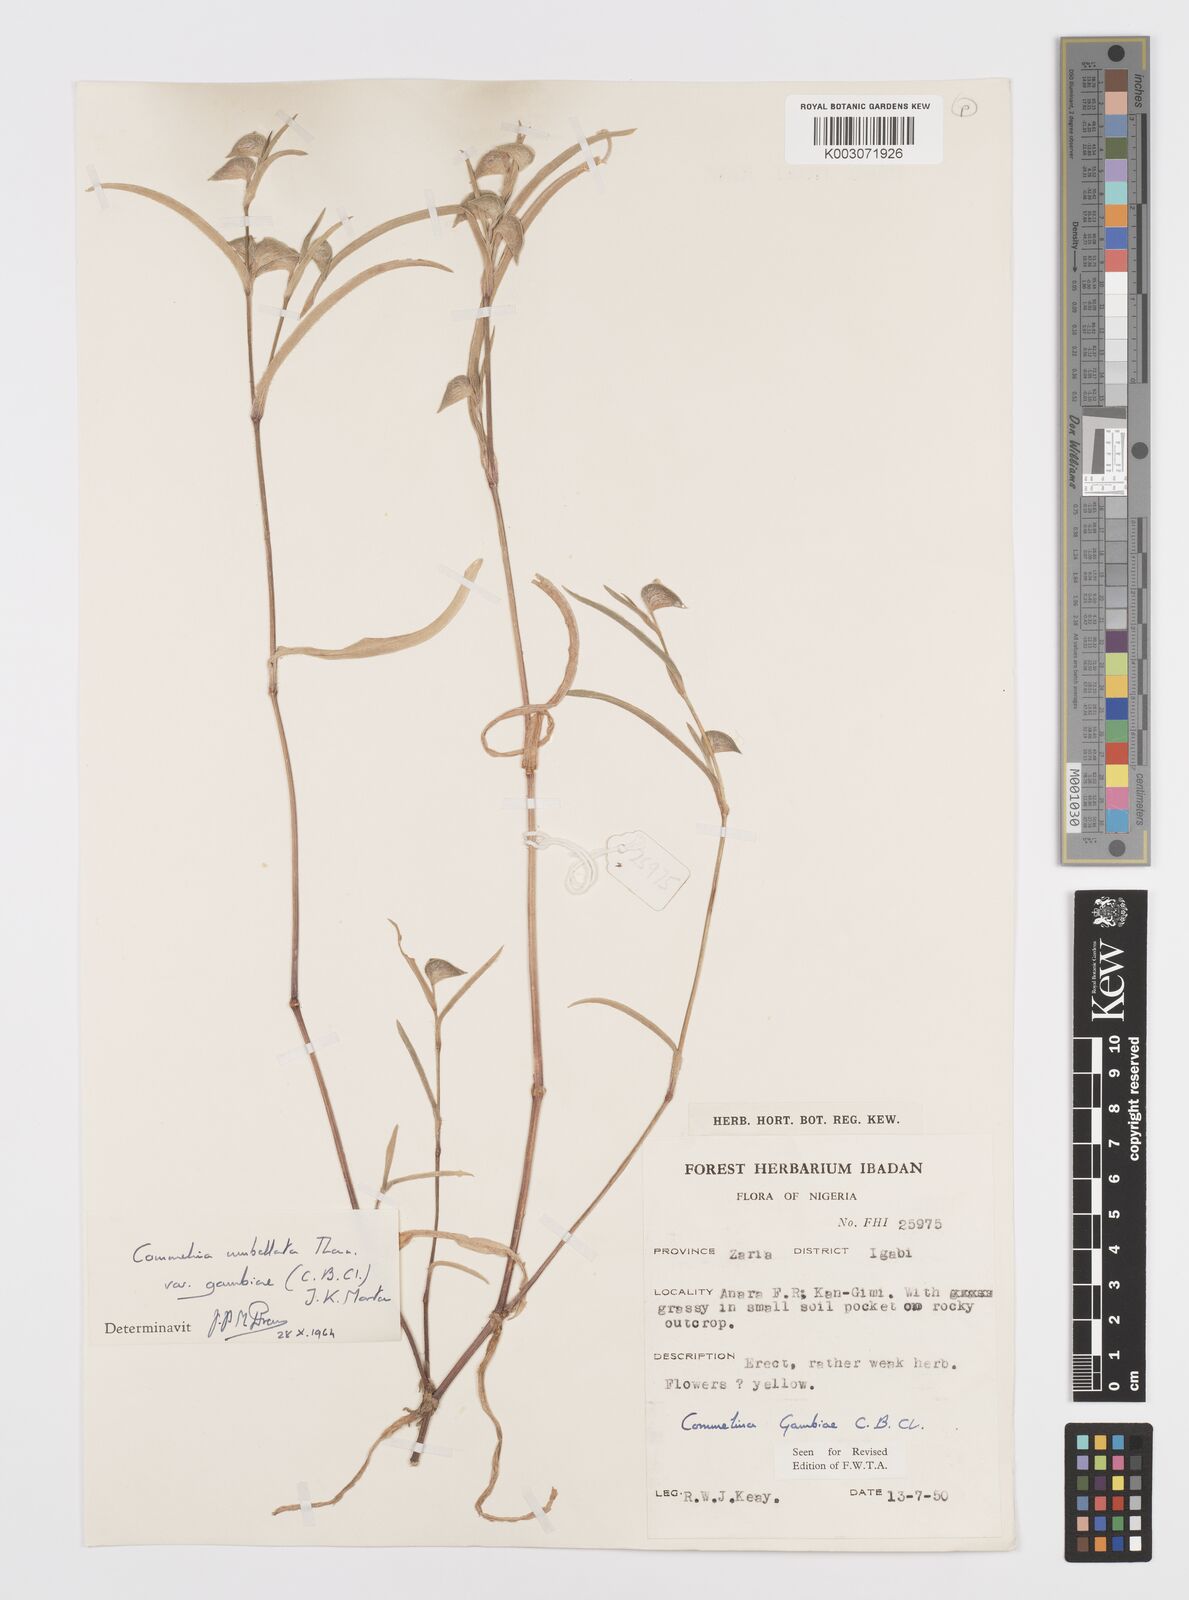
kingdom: Plantae
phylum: Tracheophyta
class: Liliopsida
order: Commelinales
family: Commelinaceae
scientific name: Commelinaceae
